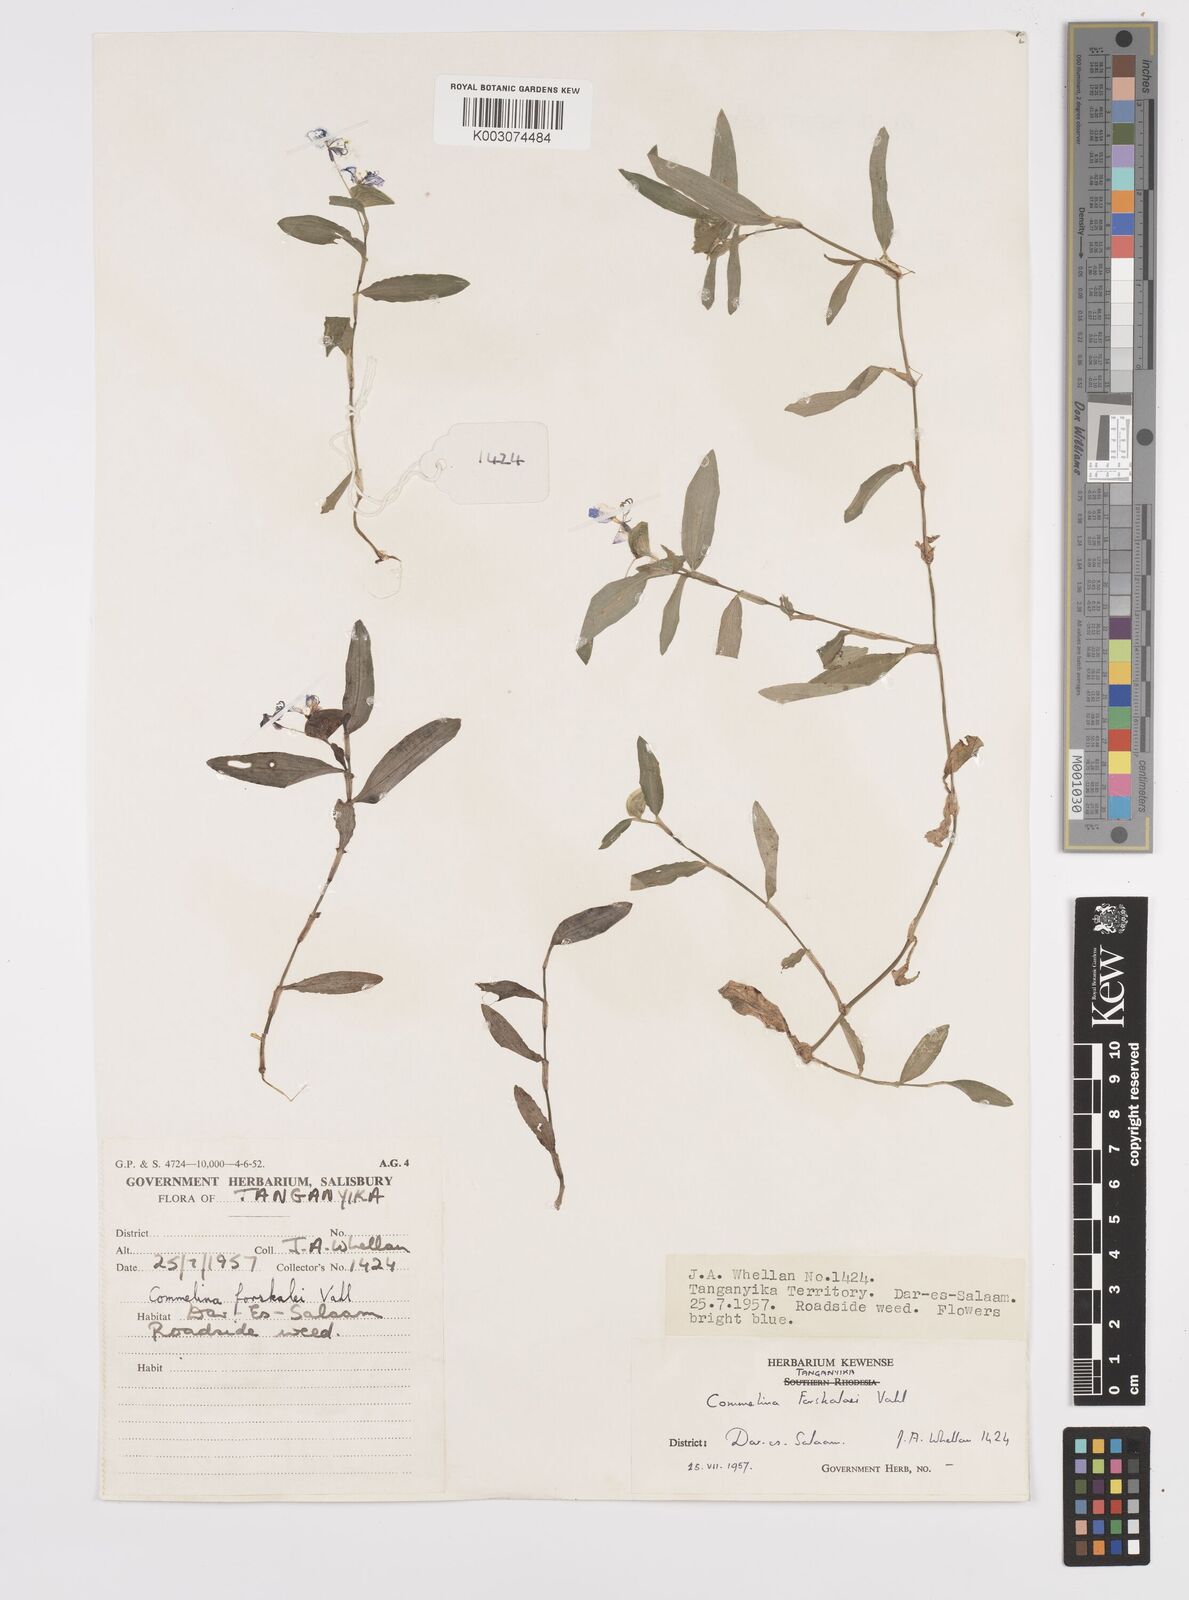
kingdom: Plantae
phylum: Tracheophyta
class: Liliopsida
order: Commelinales
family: Commelinaceae
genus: Commelina
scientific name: Commelina
